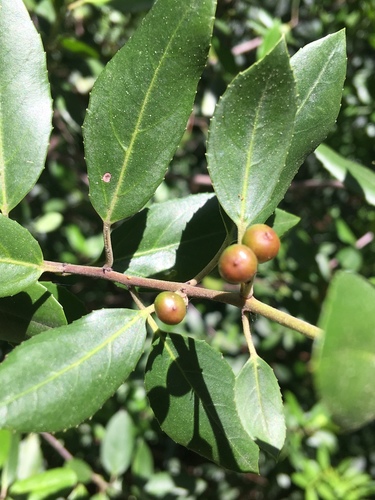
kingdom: Plantae
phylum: Tracheophyta
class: Magnoliopsida
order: Rosales
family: Rhamnaceae
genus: Rhamnus
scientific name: Rhamnus alaternus
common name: Mediterranean buckthorn
